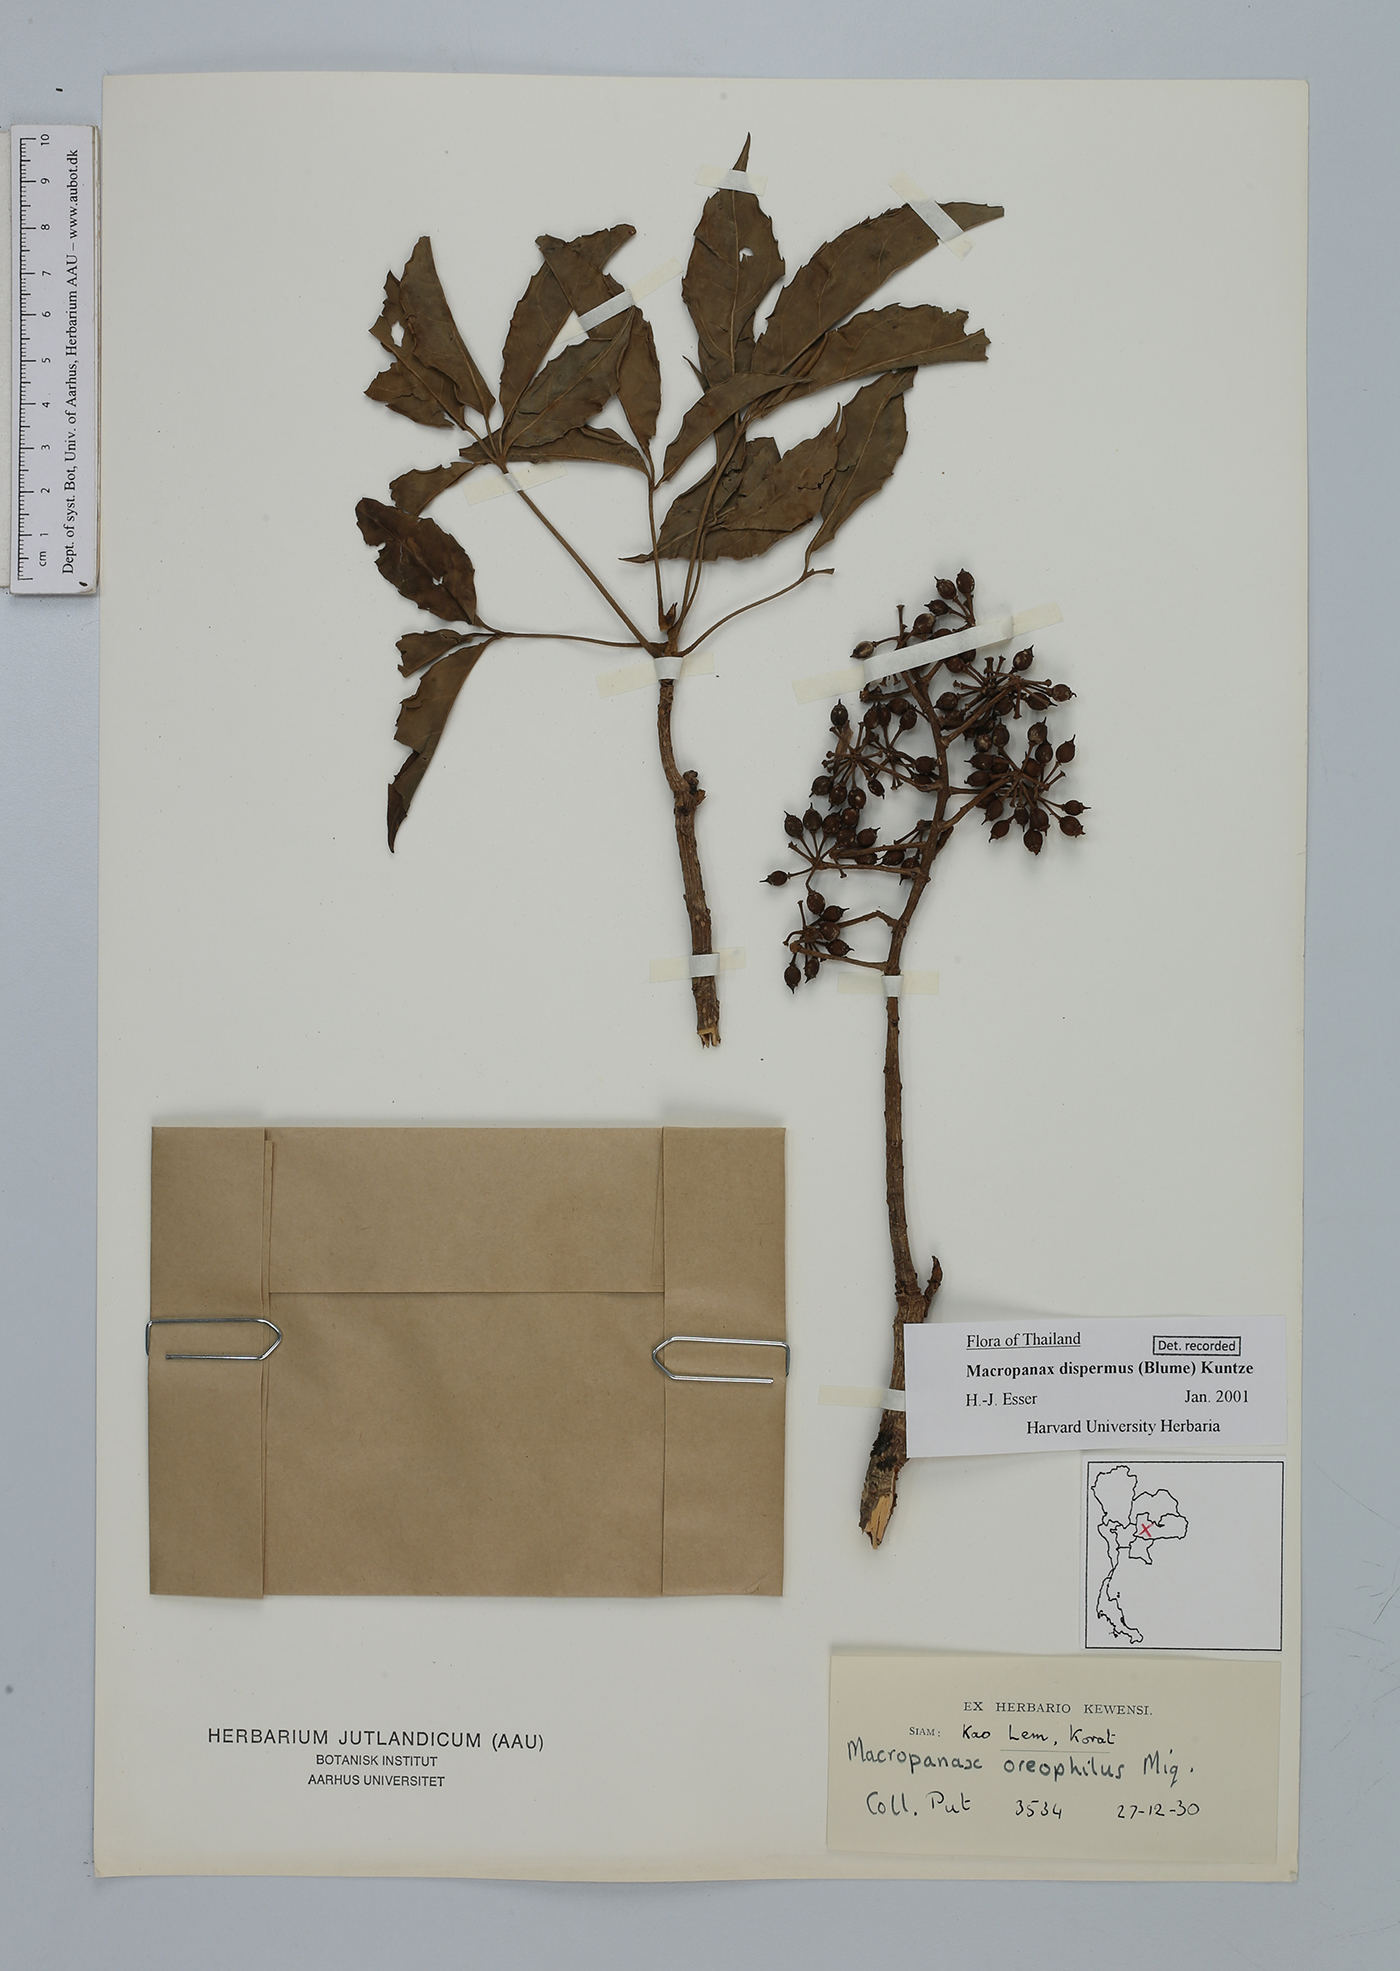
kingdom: Plantae
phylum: Tracheophyta
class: Magnoliopsida
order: Apiales
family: Araliaceae
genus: Macropanax
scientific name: Macropanax dispermus
